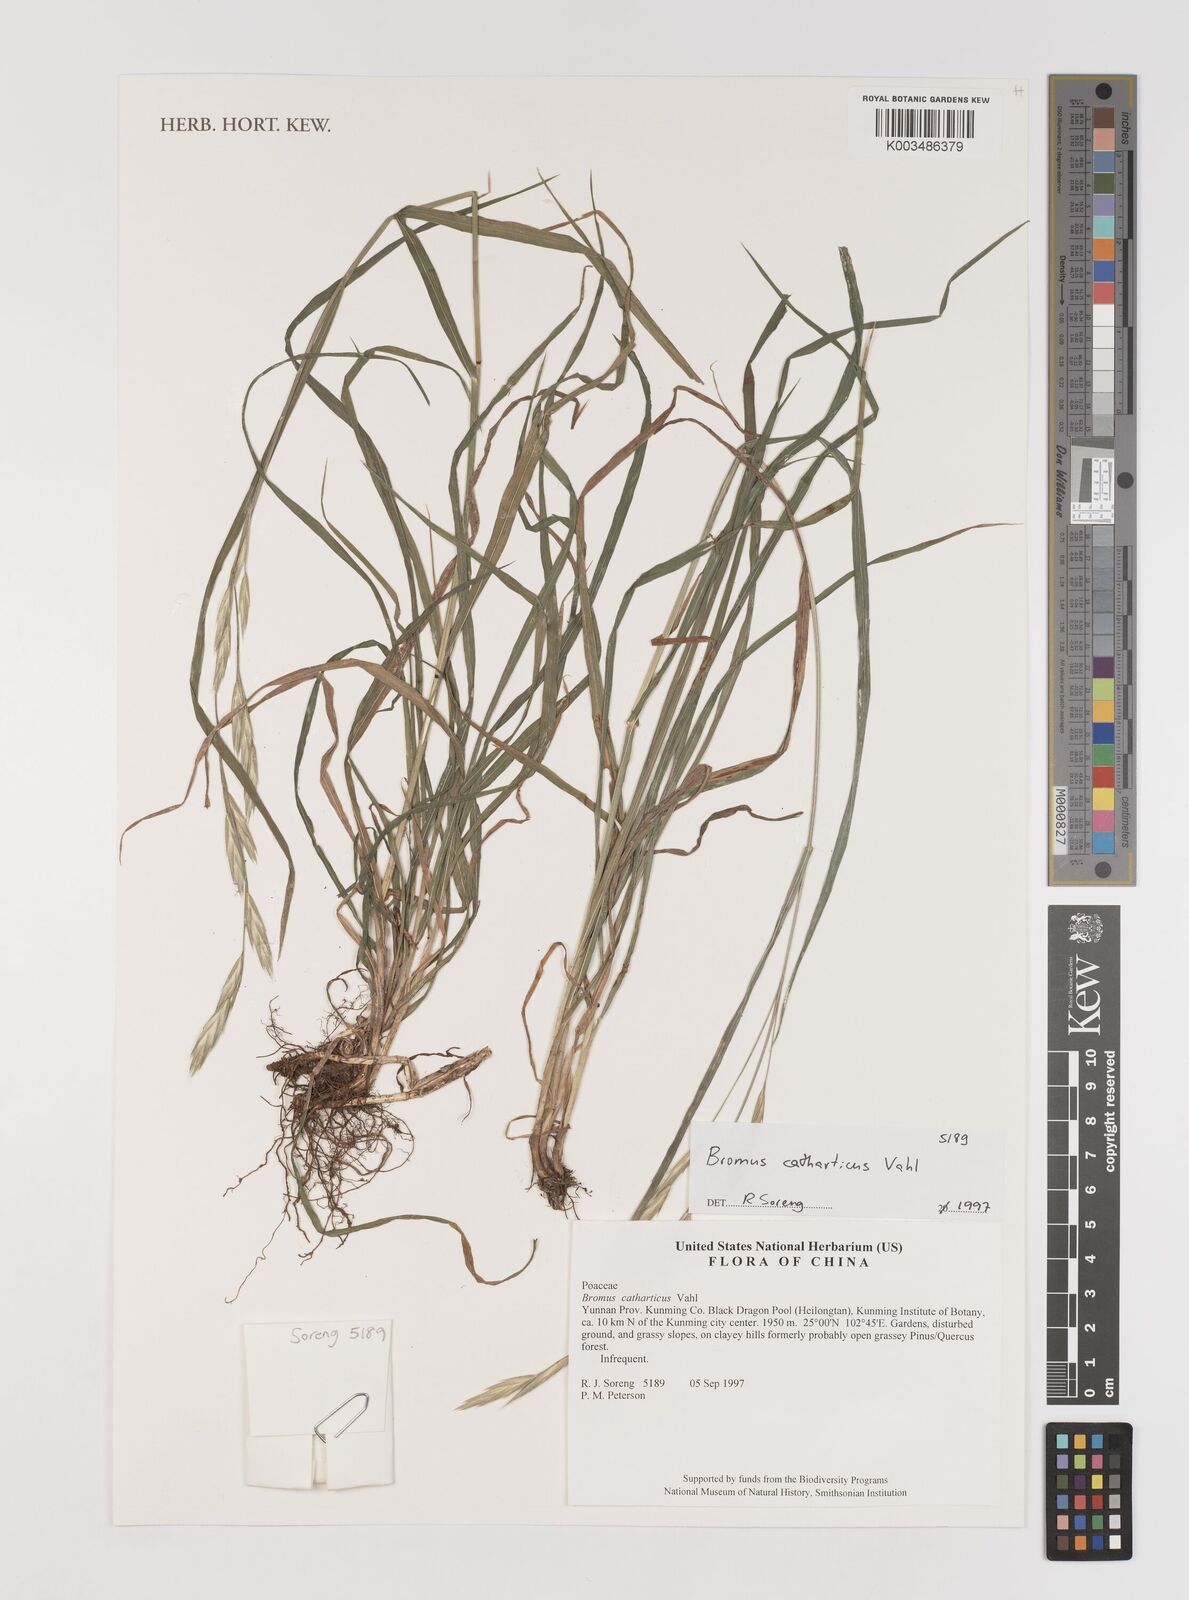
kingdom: Plantae
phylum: Tracheophyta
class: Liliopsida
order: Poales
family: Poaceae
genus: Bromus
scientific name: Bromus catharticus
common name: Rescuegrass
